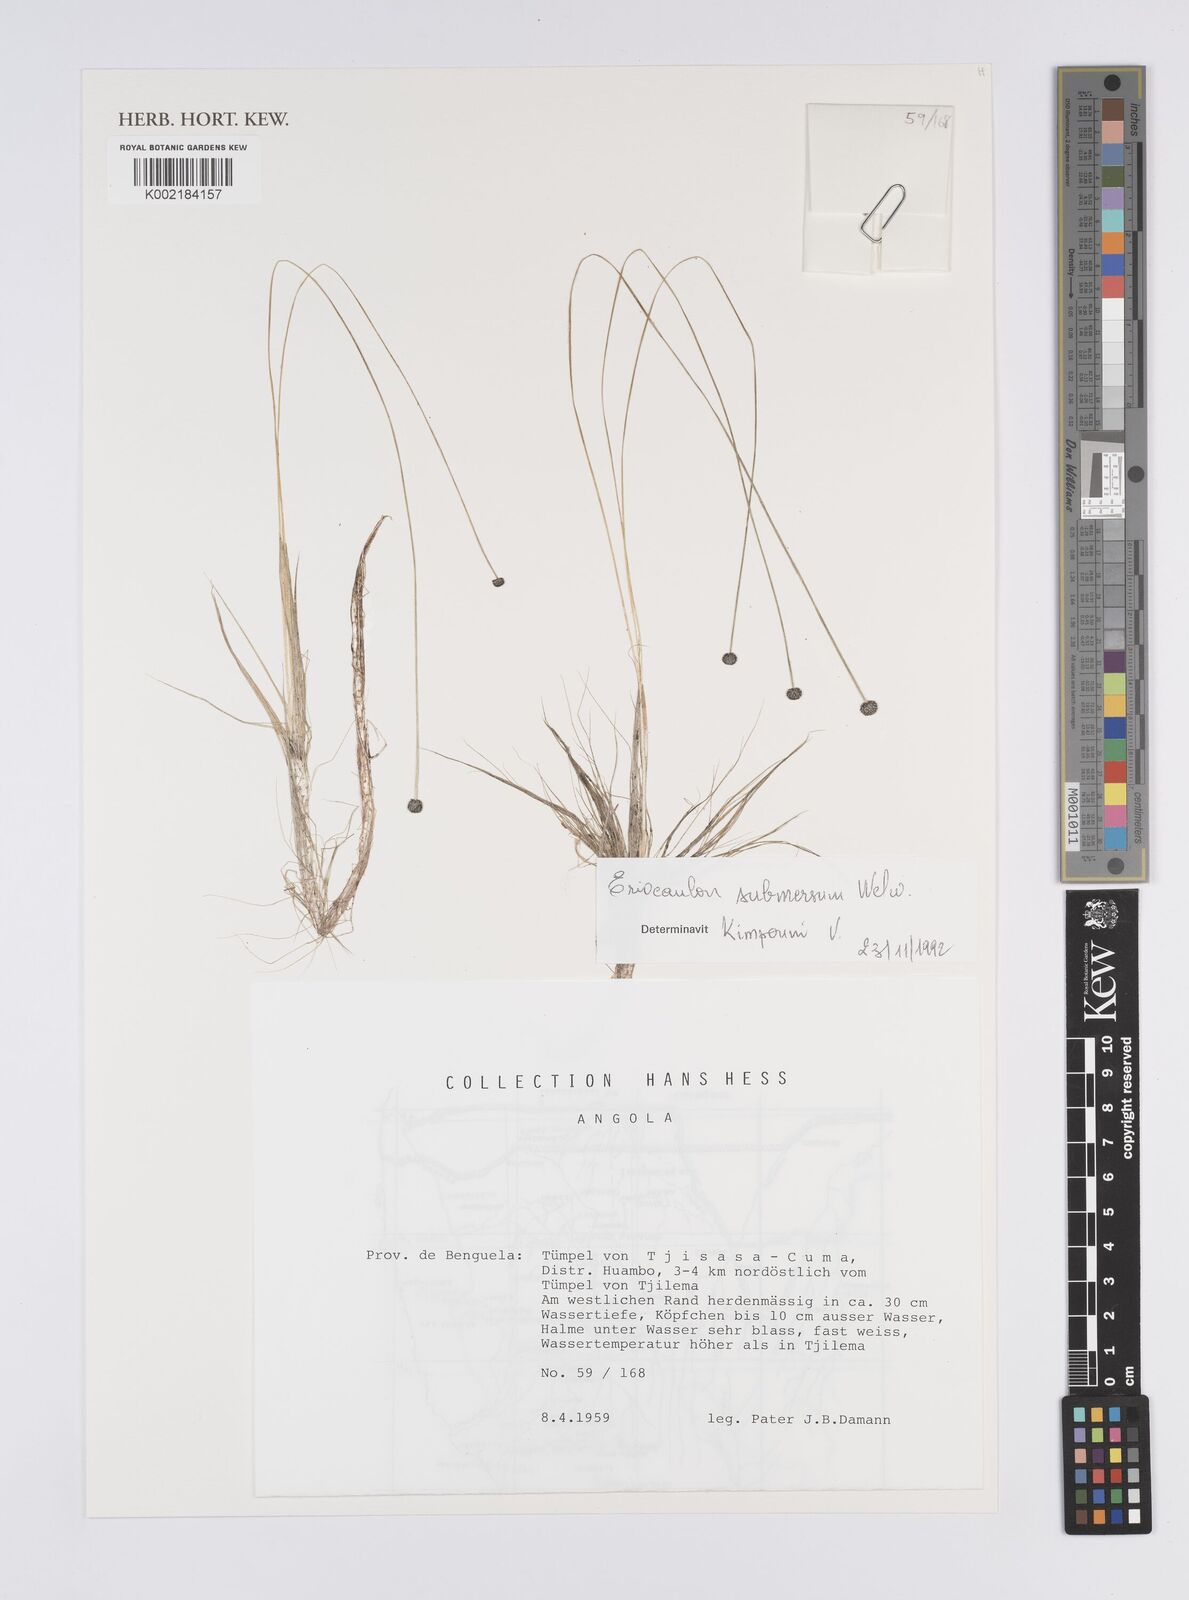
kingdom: Plantae
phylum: Tracheophyta
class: Liliopsida
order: Poales
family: Eriocaulaceae
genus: Eriocaulon
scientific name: Eriocaulon carsonii
